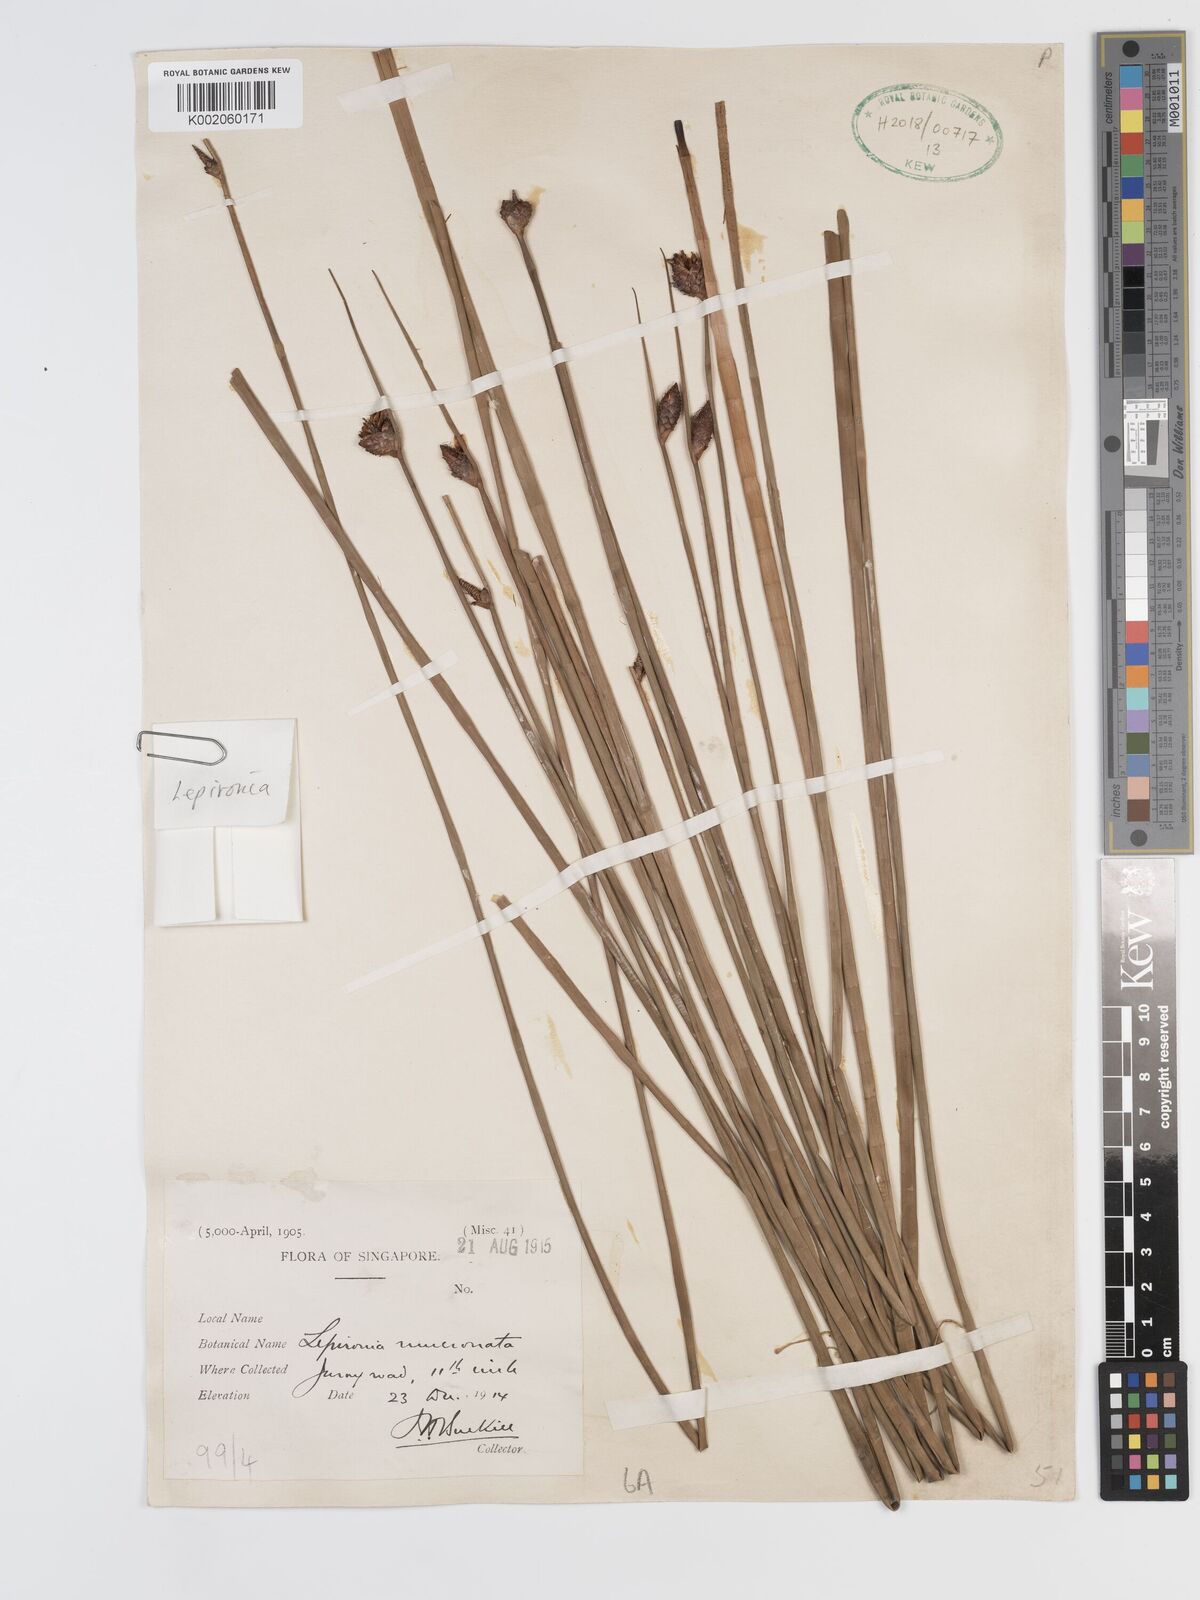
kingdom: Plantae
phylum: Tracheophyta
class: Liliopsida
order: Poales
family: Cyperaceae
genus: Lepironia
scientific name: Lepironia articulata
